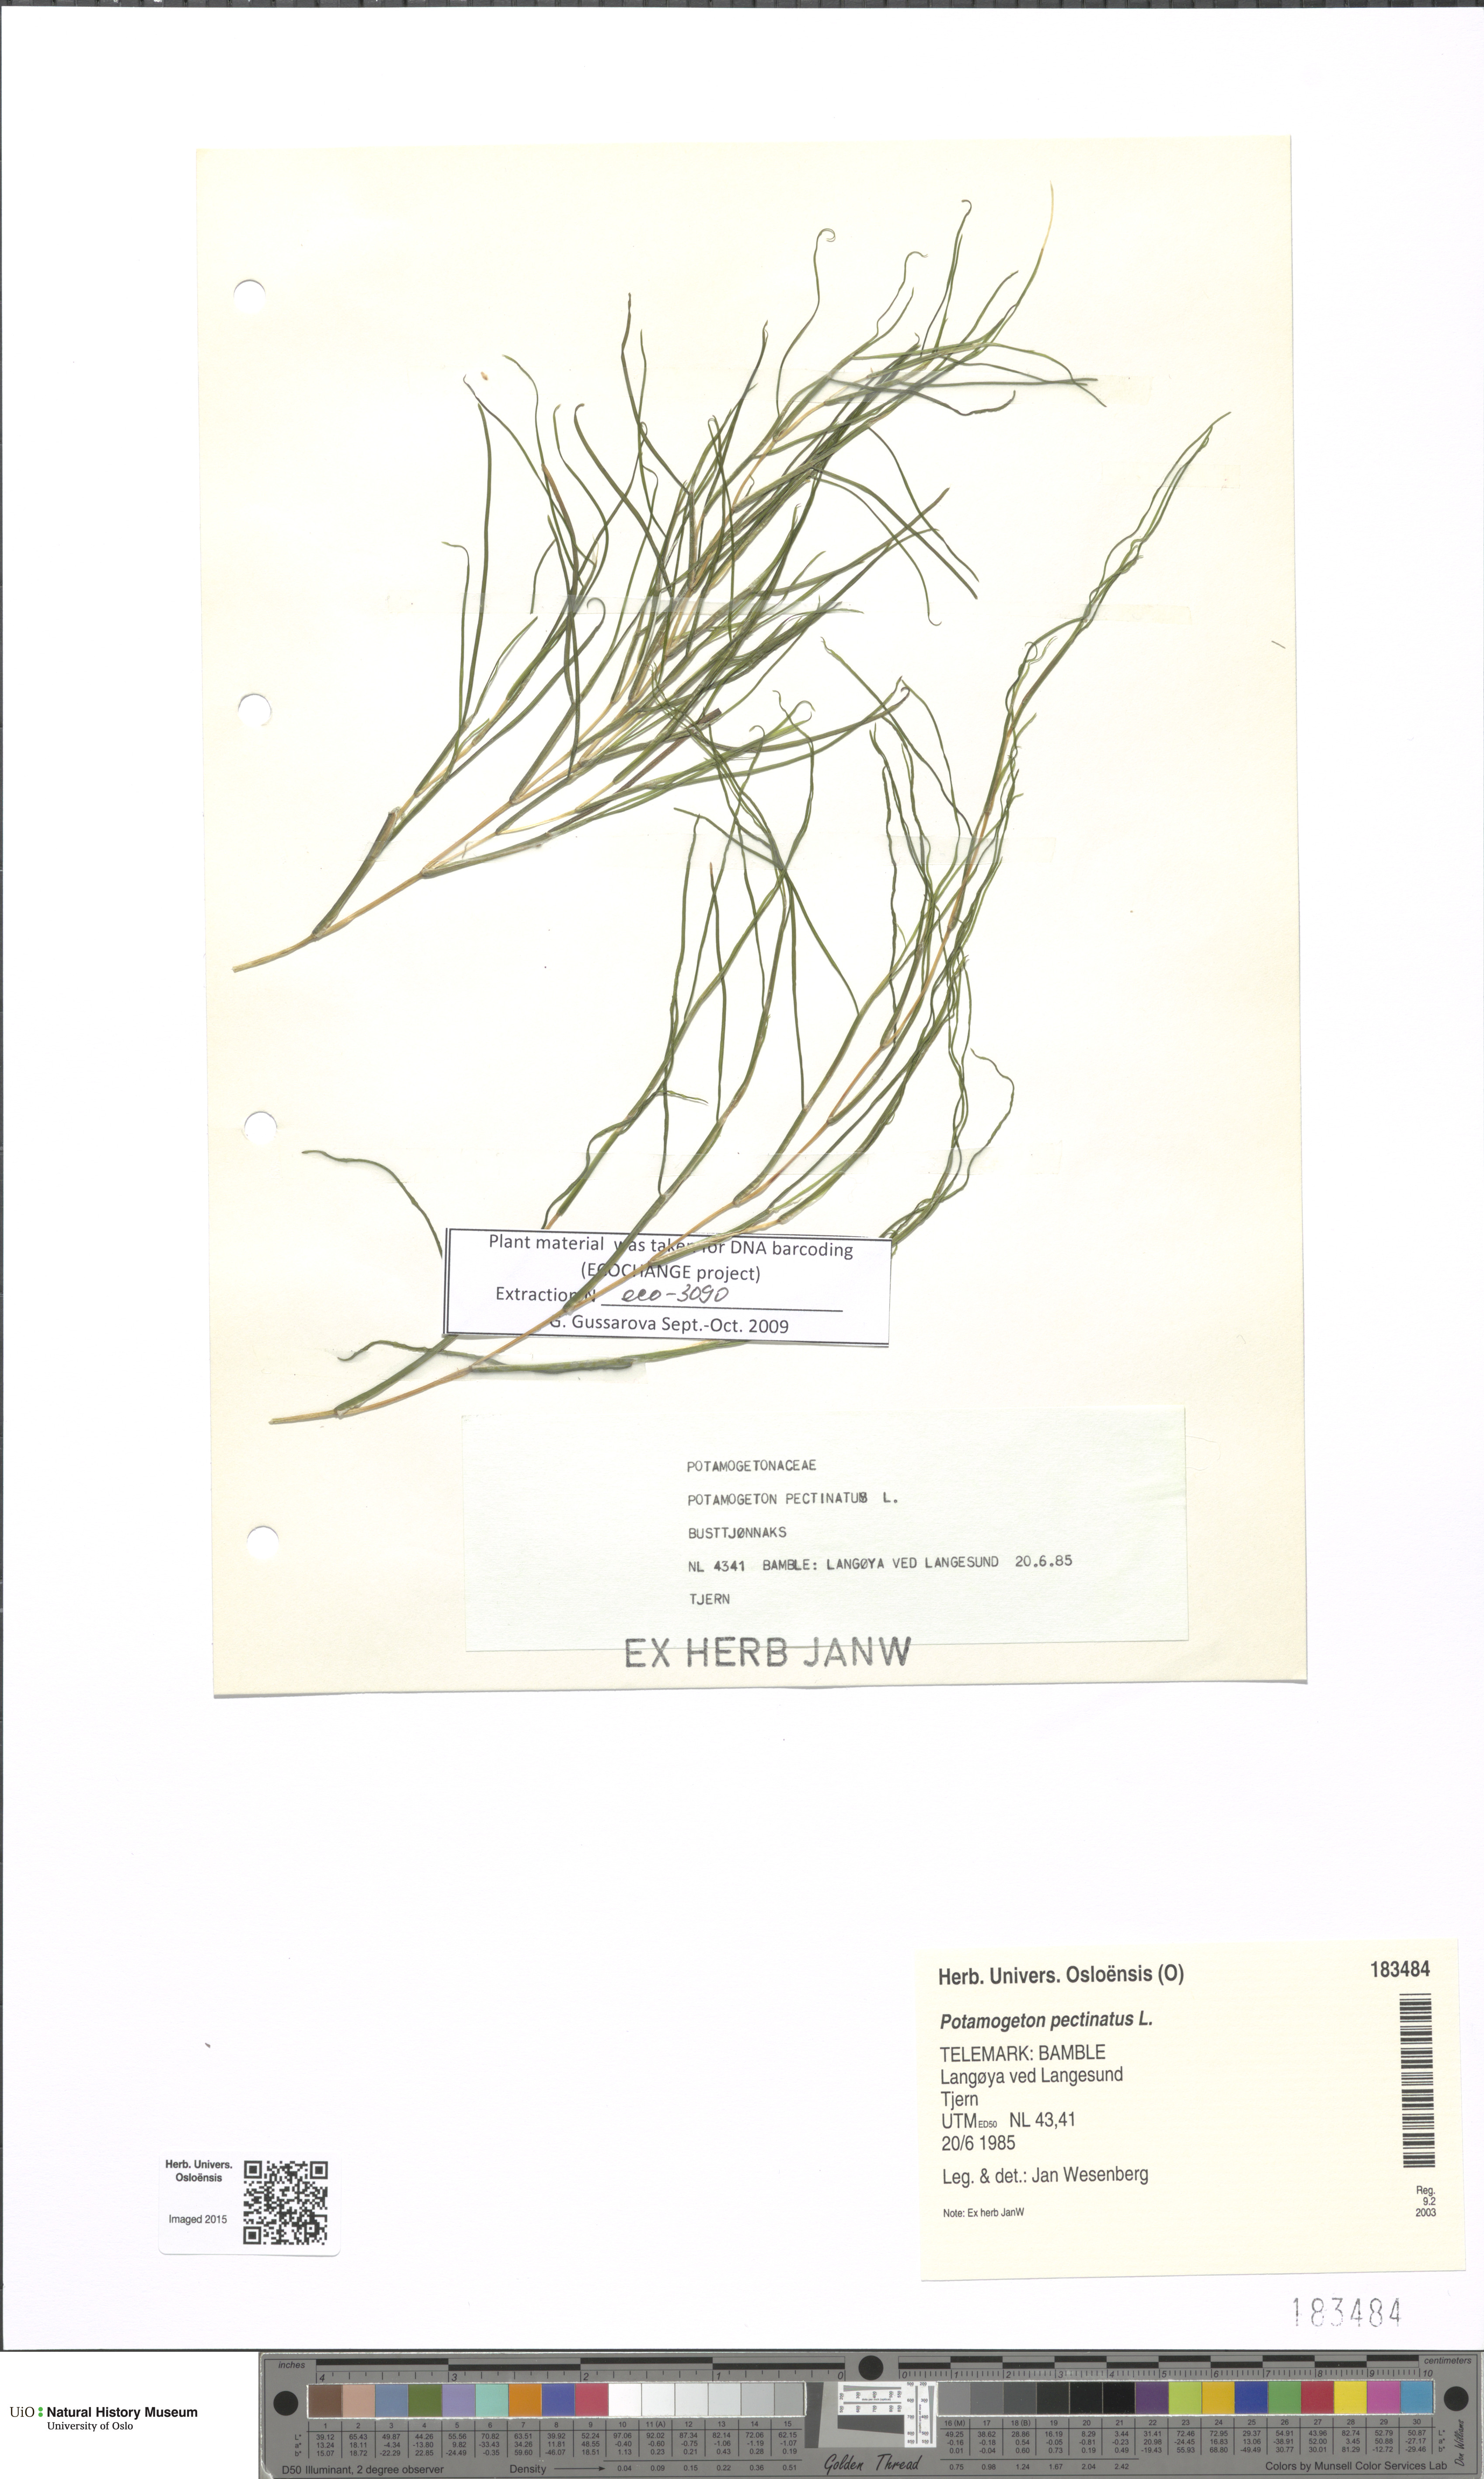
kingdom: Plantae
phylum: Tracheophyta
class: Liliopsida
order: Alismatales
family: Potamogetonaceae
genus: Stuckenia
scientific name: Stuckenia pectinata
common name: Sago pondweed
